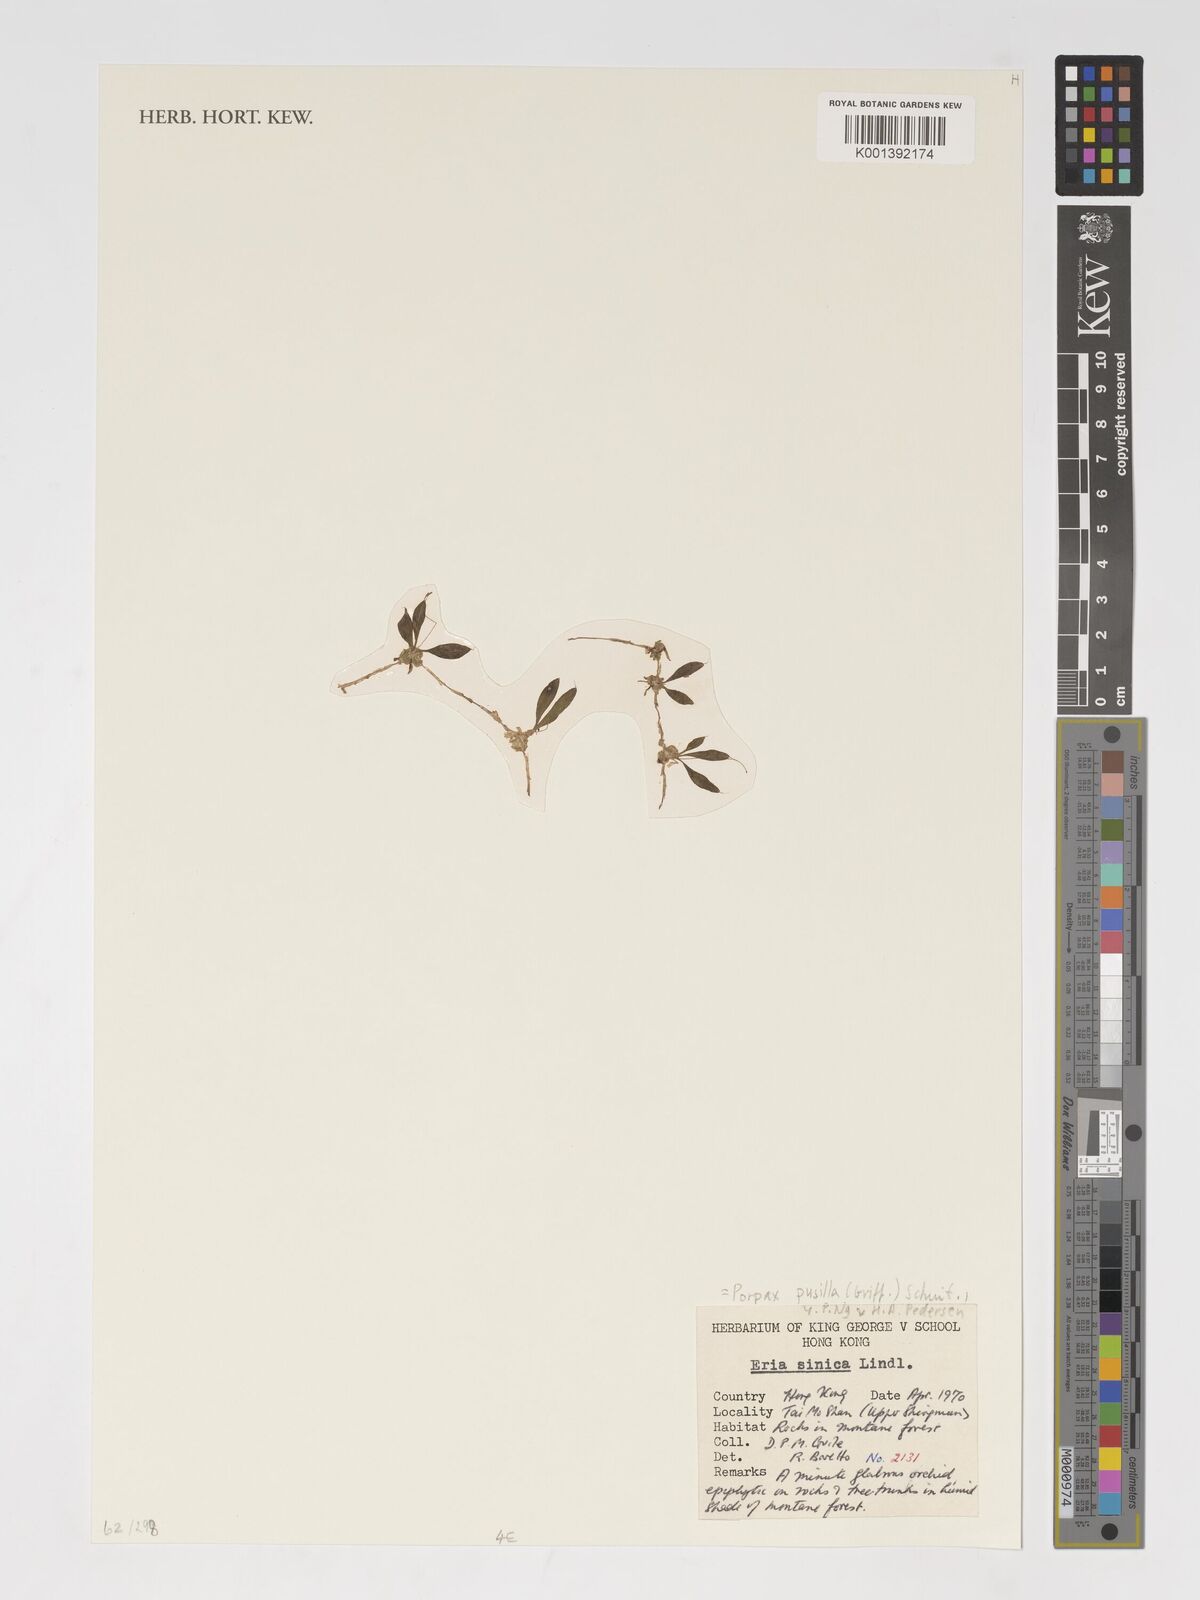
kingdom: Plantae
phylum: Tracheophyta
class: Liliopsida
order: Asparagales
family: Orchidaceae
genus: Porpax
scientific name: Porpax pusilla
